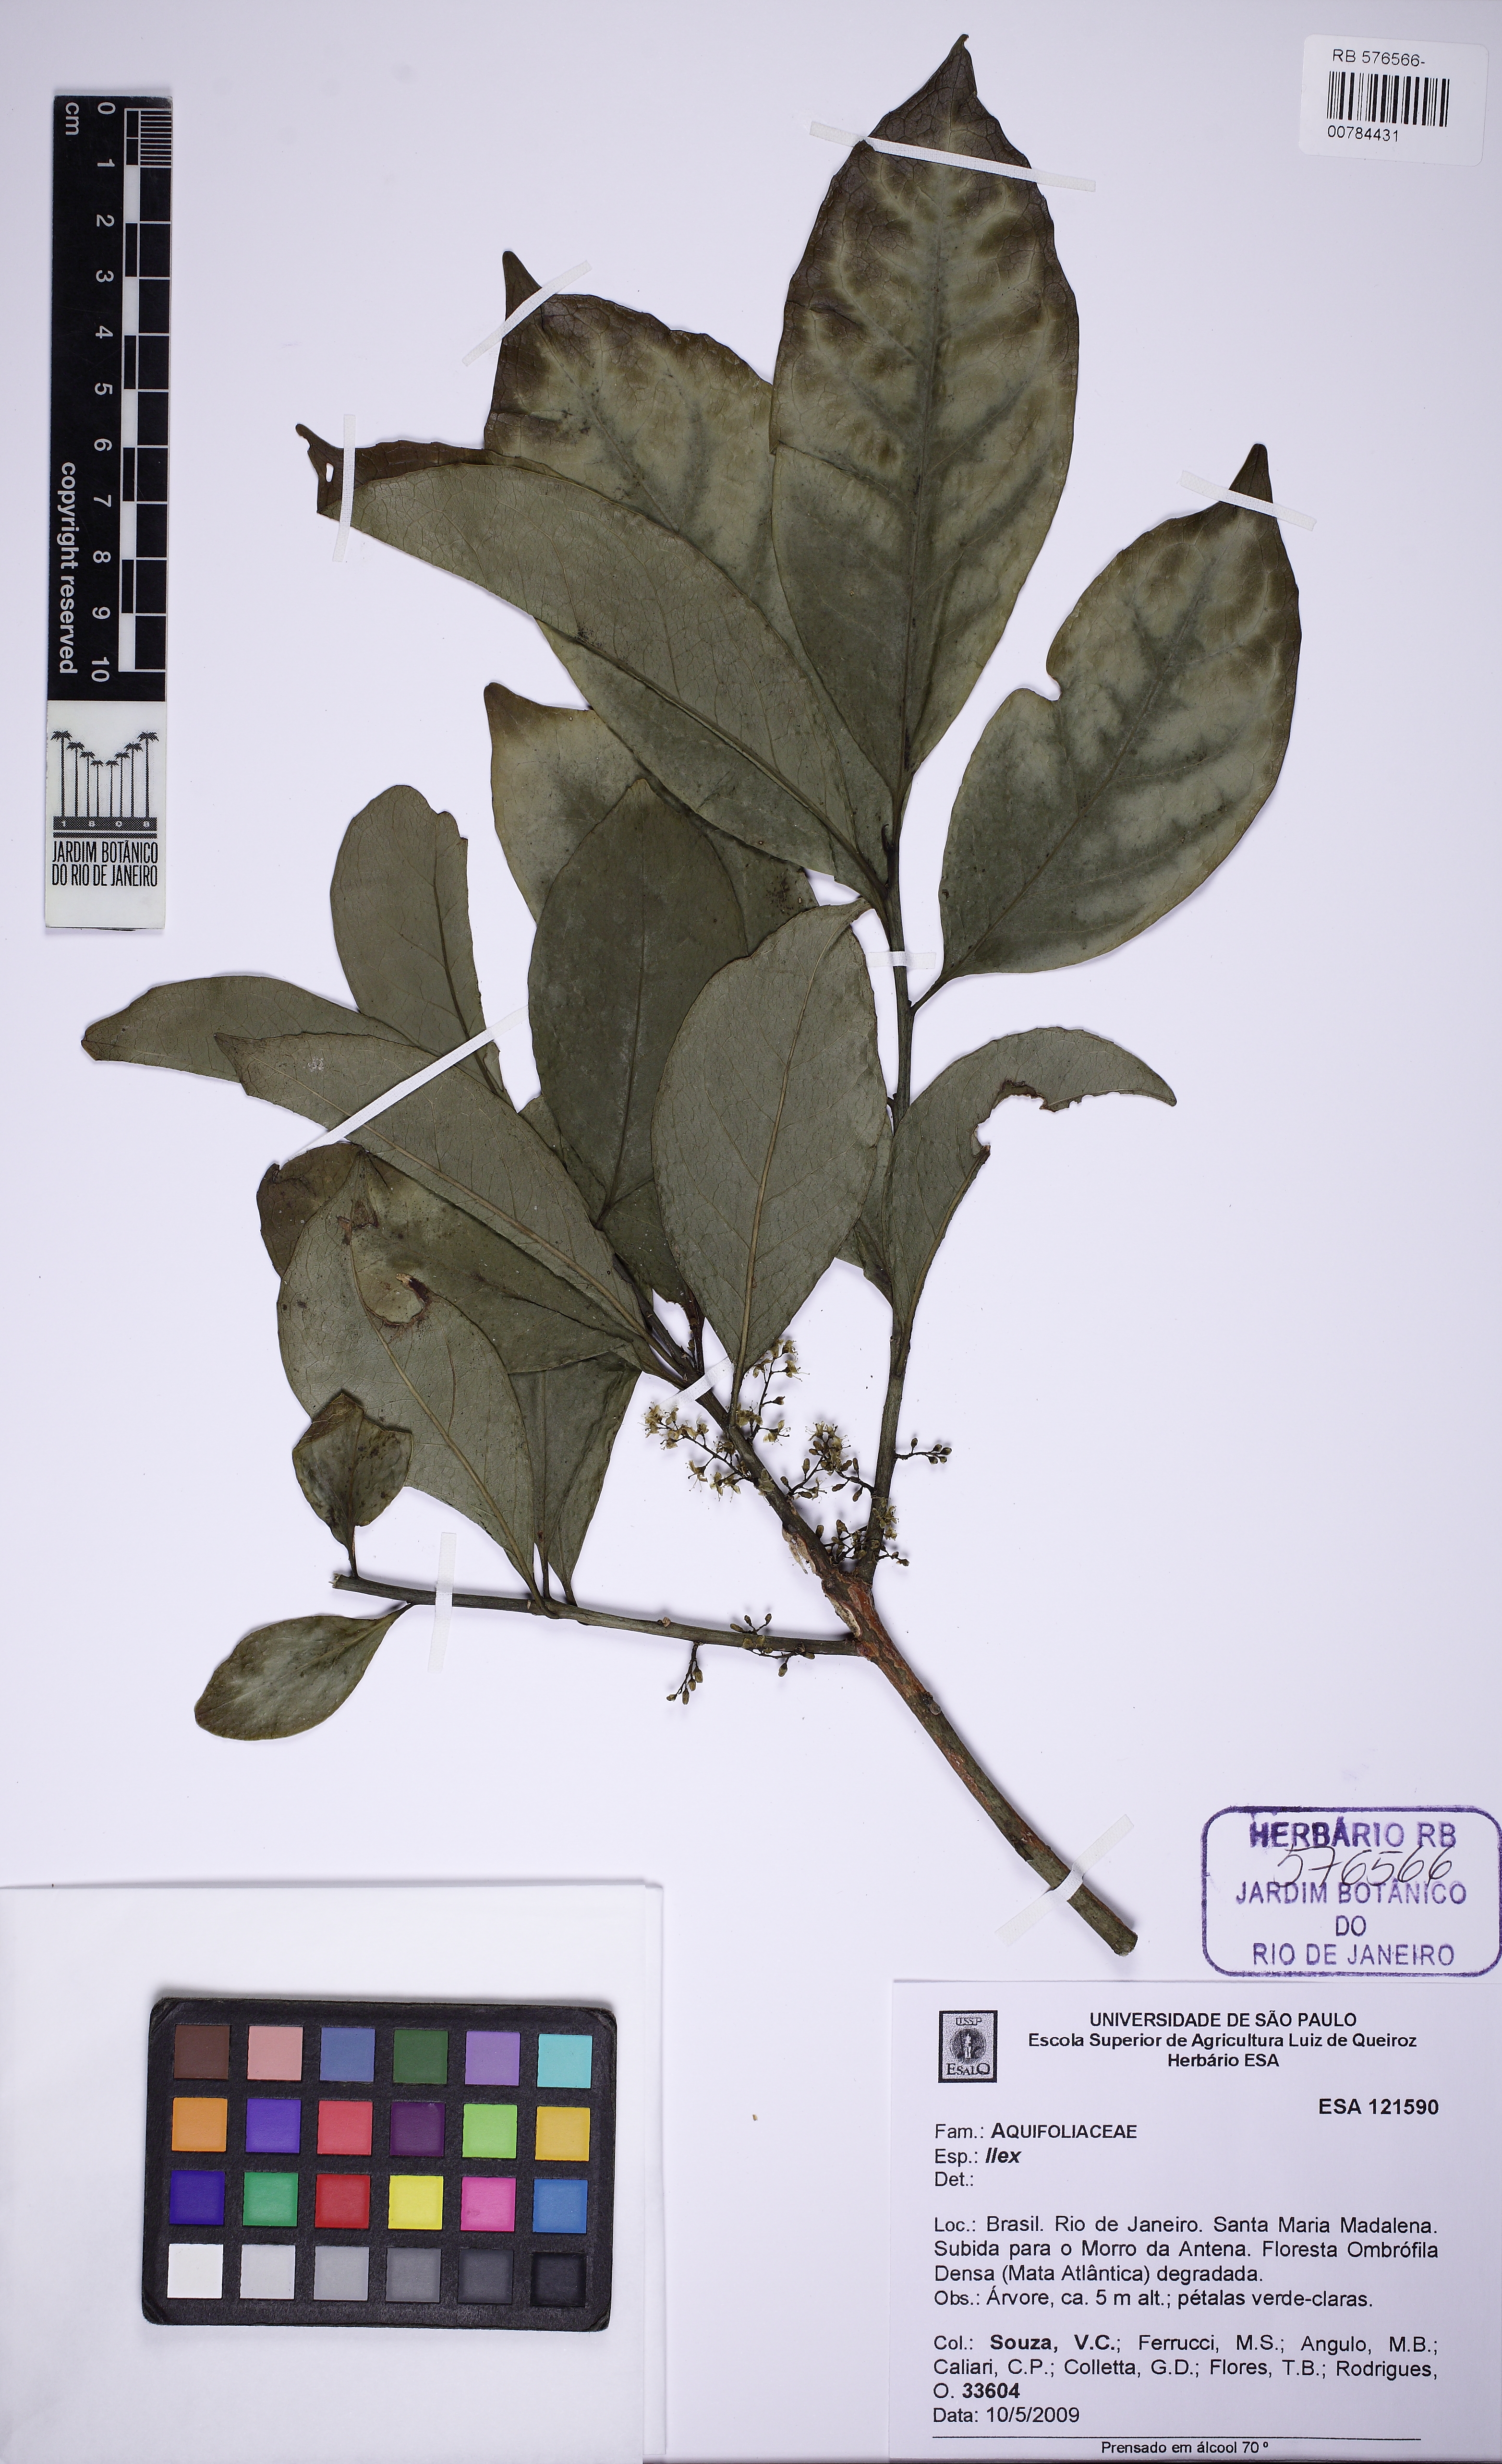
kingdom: Plantae
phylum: Tracheophyta
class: Magnoliopsida
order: Aquifoliales
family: Aquifoliaceae
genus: Ilex
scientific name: Ilex
